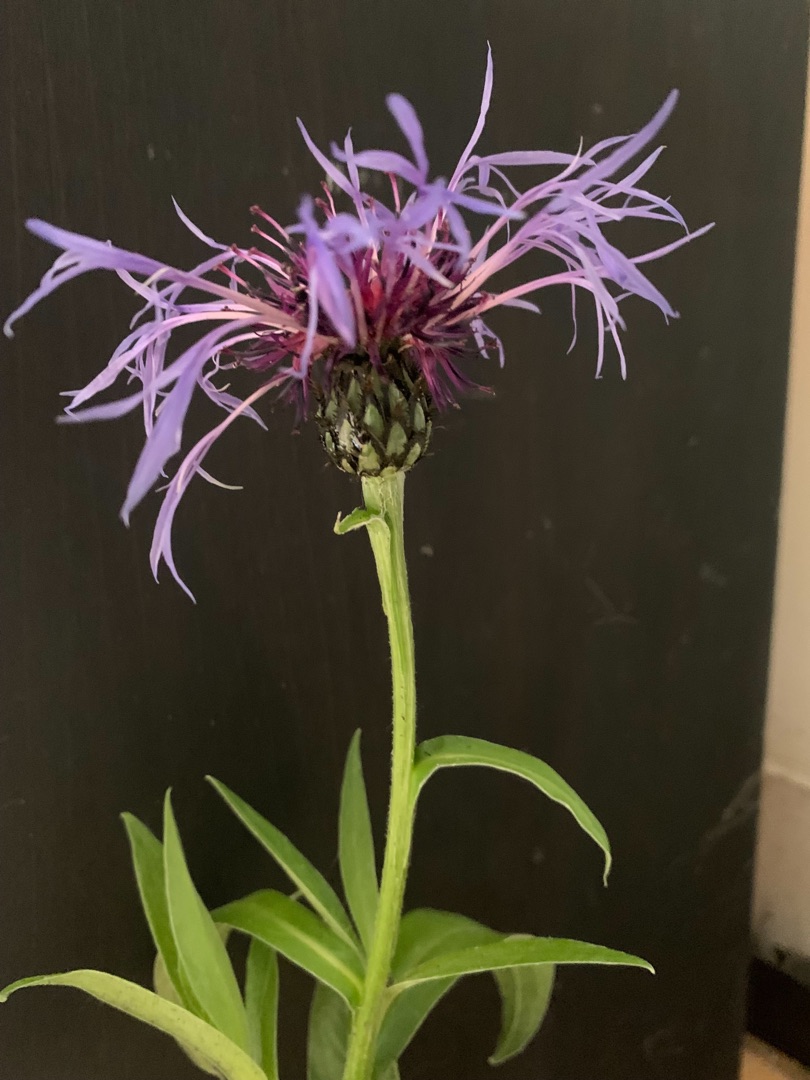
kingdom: Plantae
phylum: Tracheophyta
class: Magnoliopsida
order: Asterales
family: Asteraceae
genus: Centaurea
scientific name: Centaurea montana
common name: Bjerg-knopurt
